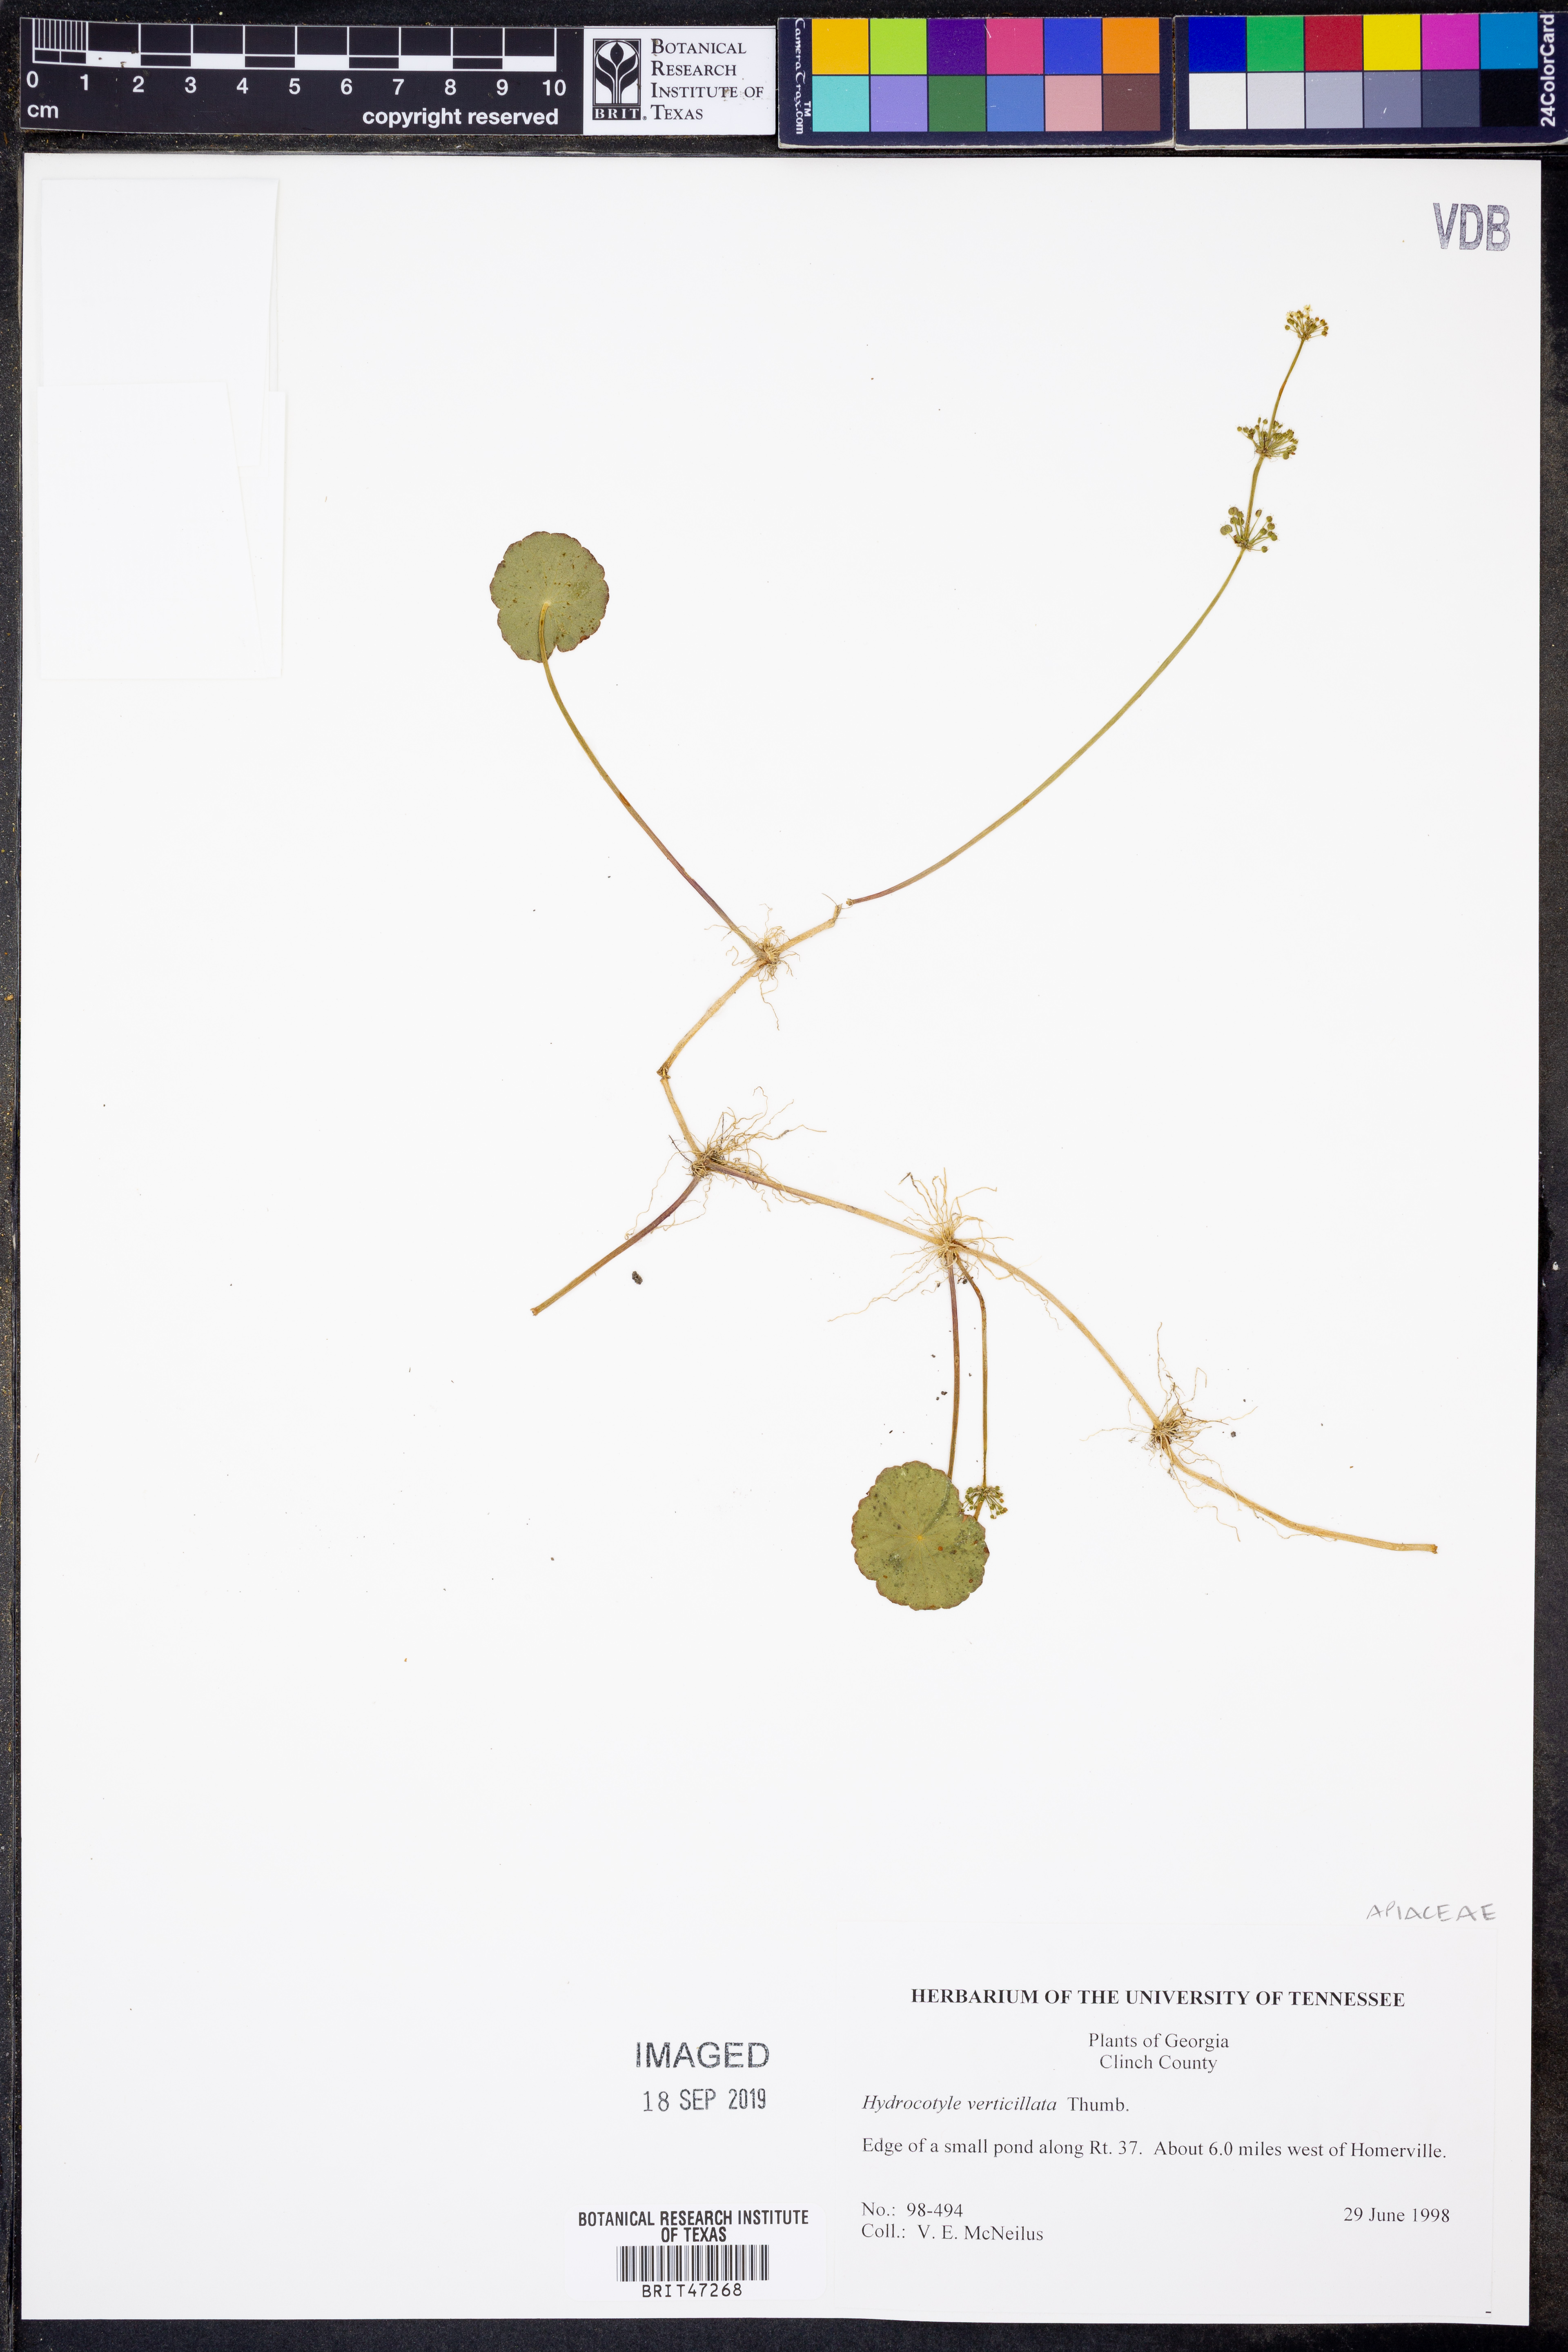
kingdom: Plantae
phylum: Tracheophyta
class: Magnoliopsida
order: Apiales
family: Araliaceae
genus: Hydrocotyle
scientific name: Hydrocotyle verticillata
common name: Whorled marshpennywort
